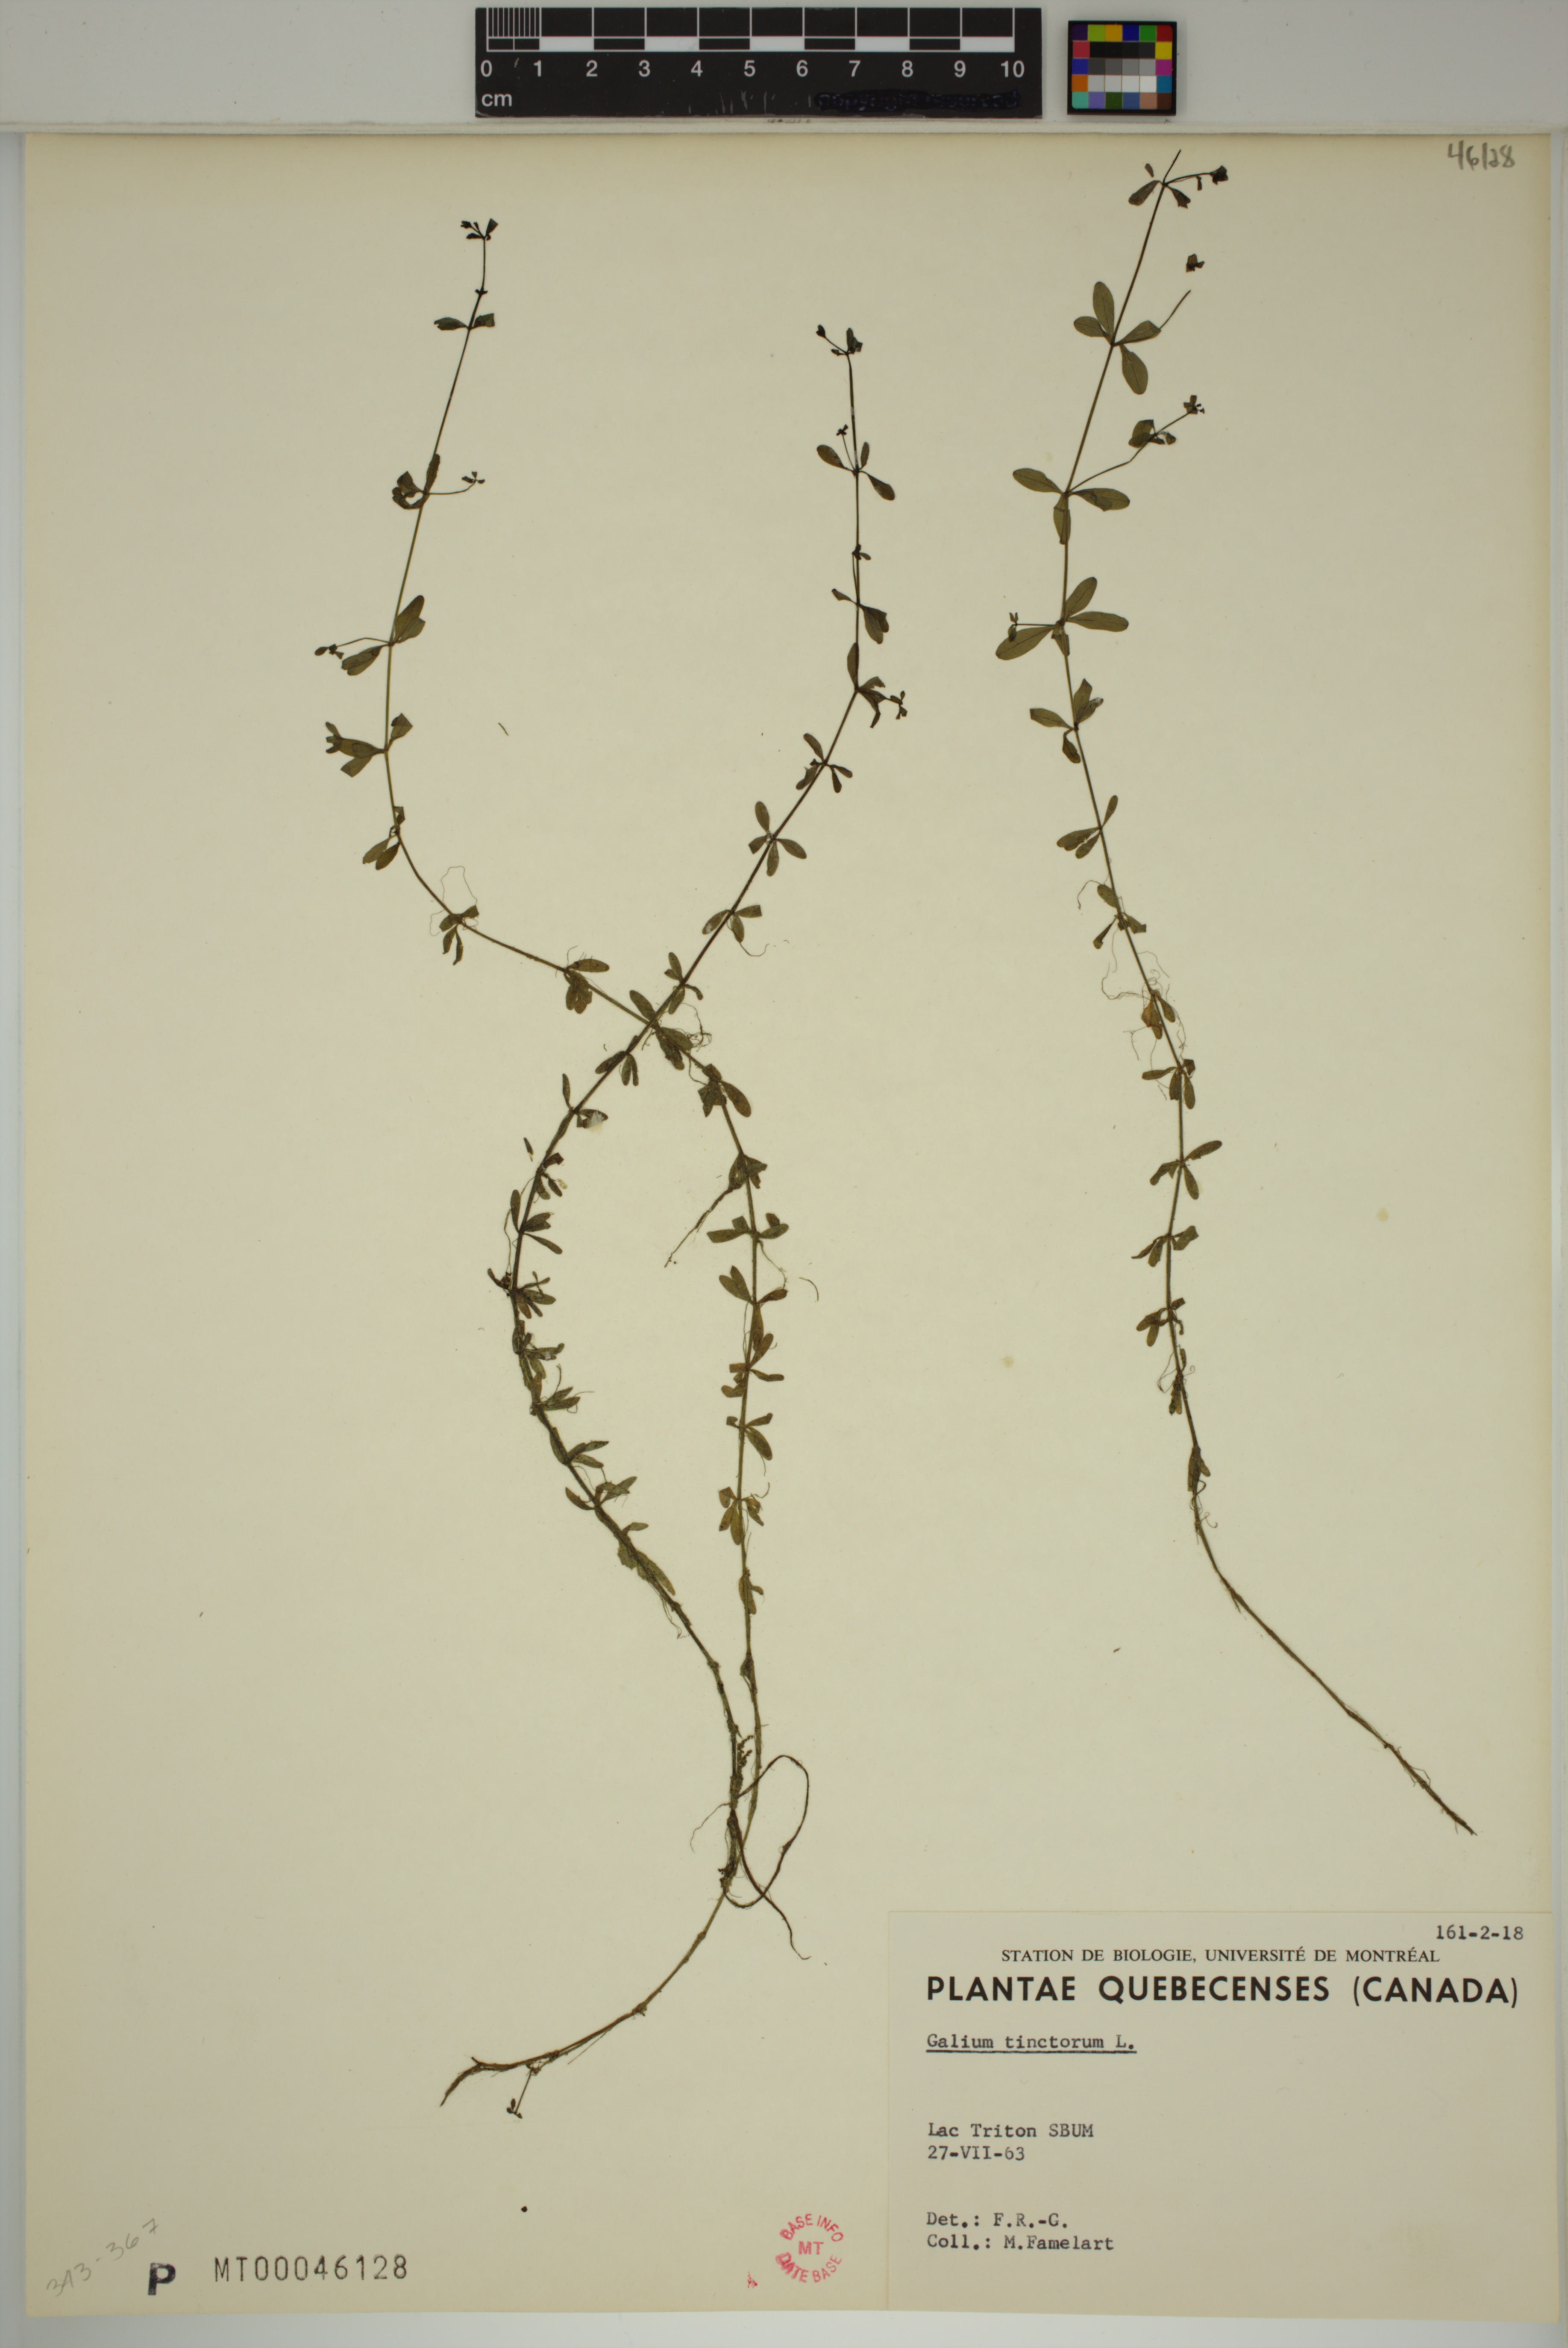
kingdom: Plantae
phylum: Tracheophyta
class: Magnoliopsida
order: Gentianales
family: Rubiaceae
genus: Galium
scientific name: Galium tinctorium
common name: Bedstraw
